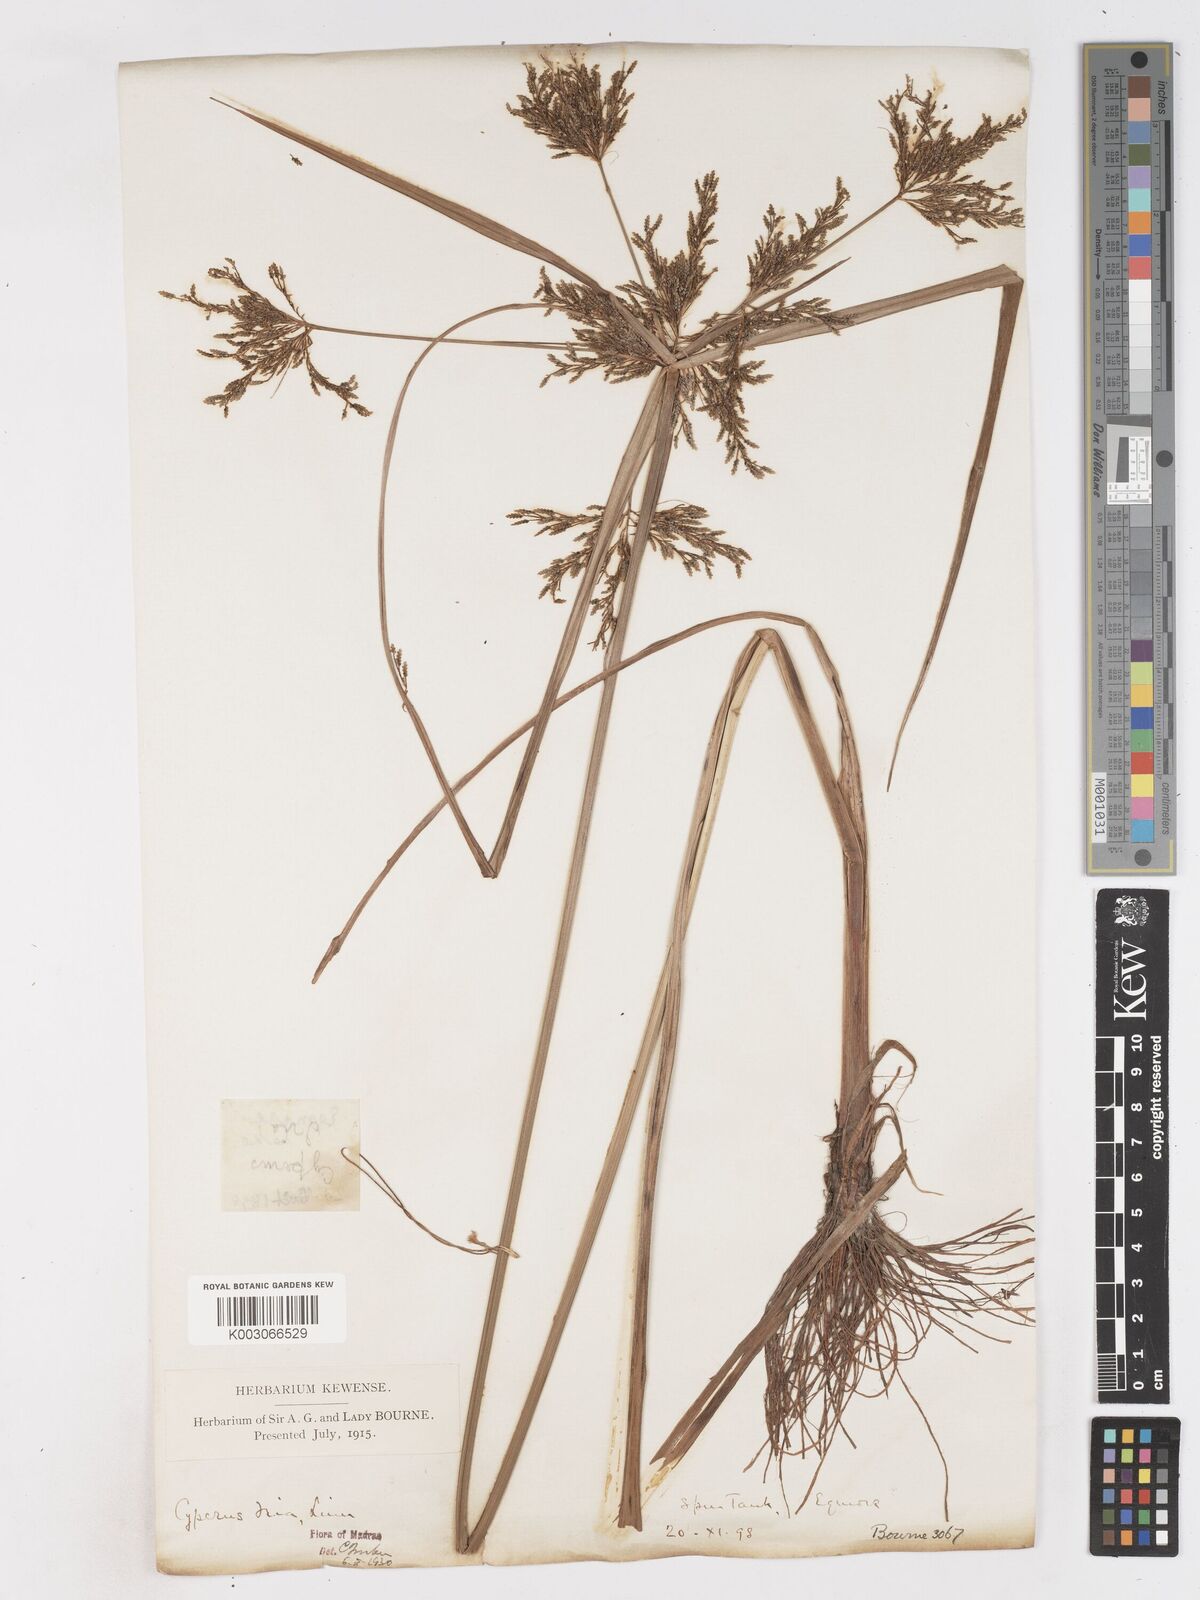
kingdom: Plantae
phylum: Tracheophyta
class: Liliopsida
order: Poales
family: Cyperaceae
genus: Cyperus
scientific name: Cyperus iria
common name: Ricefield flatsedge
